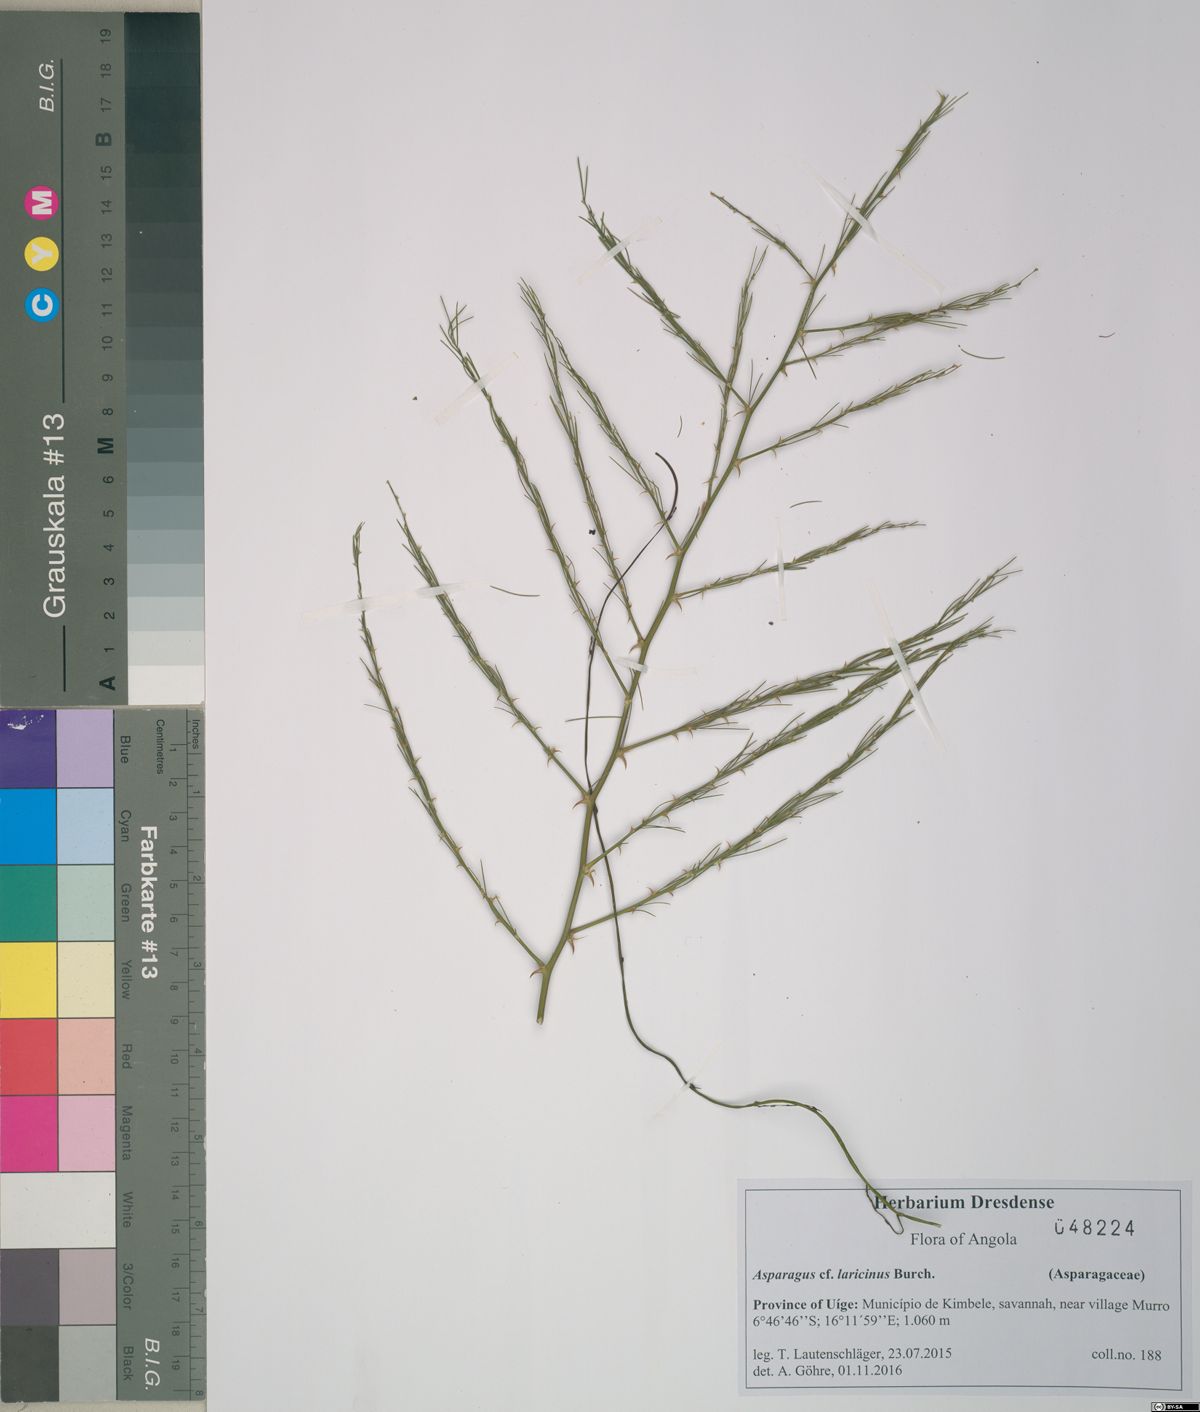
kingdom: Plantae
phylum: Tracheophyta
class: Liliopsida
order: Asparagales
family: Asparagaceae
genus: Asparagus
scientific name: Asparagus laricinus
